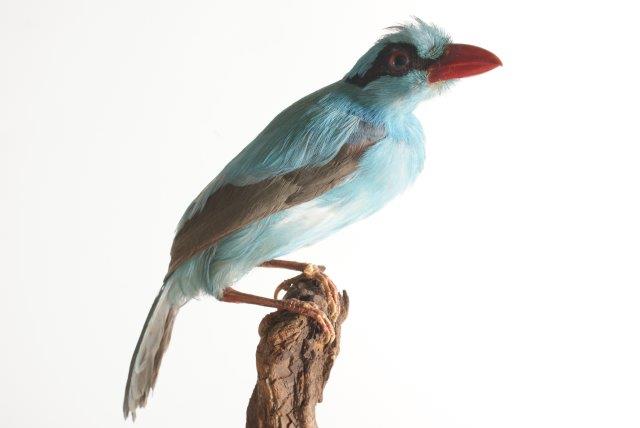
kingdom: Animalia
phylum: Chordata
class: Aves
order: Passeriformes
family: Corvidae
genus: Cissa
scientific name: Cissa chinensis
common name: Common green magpie
